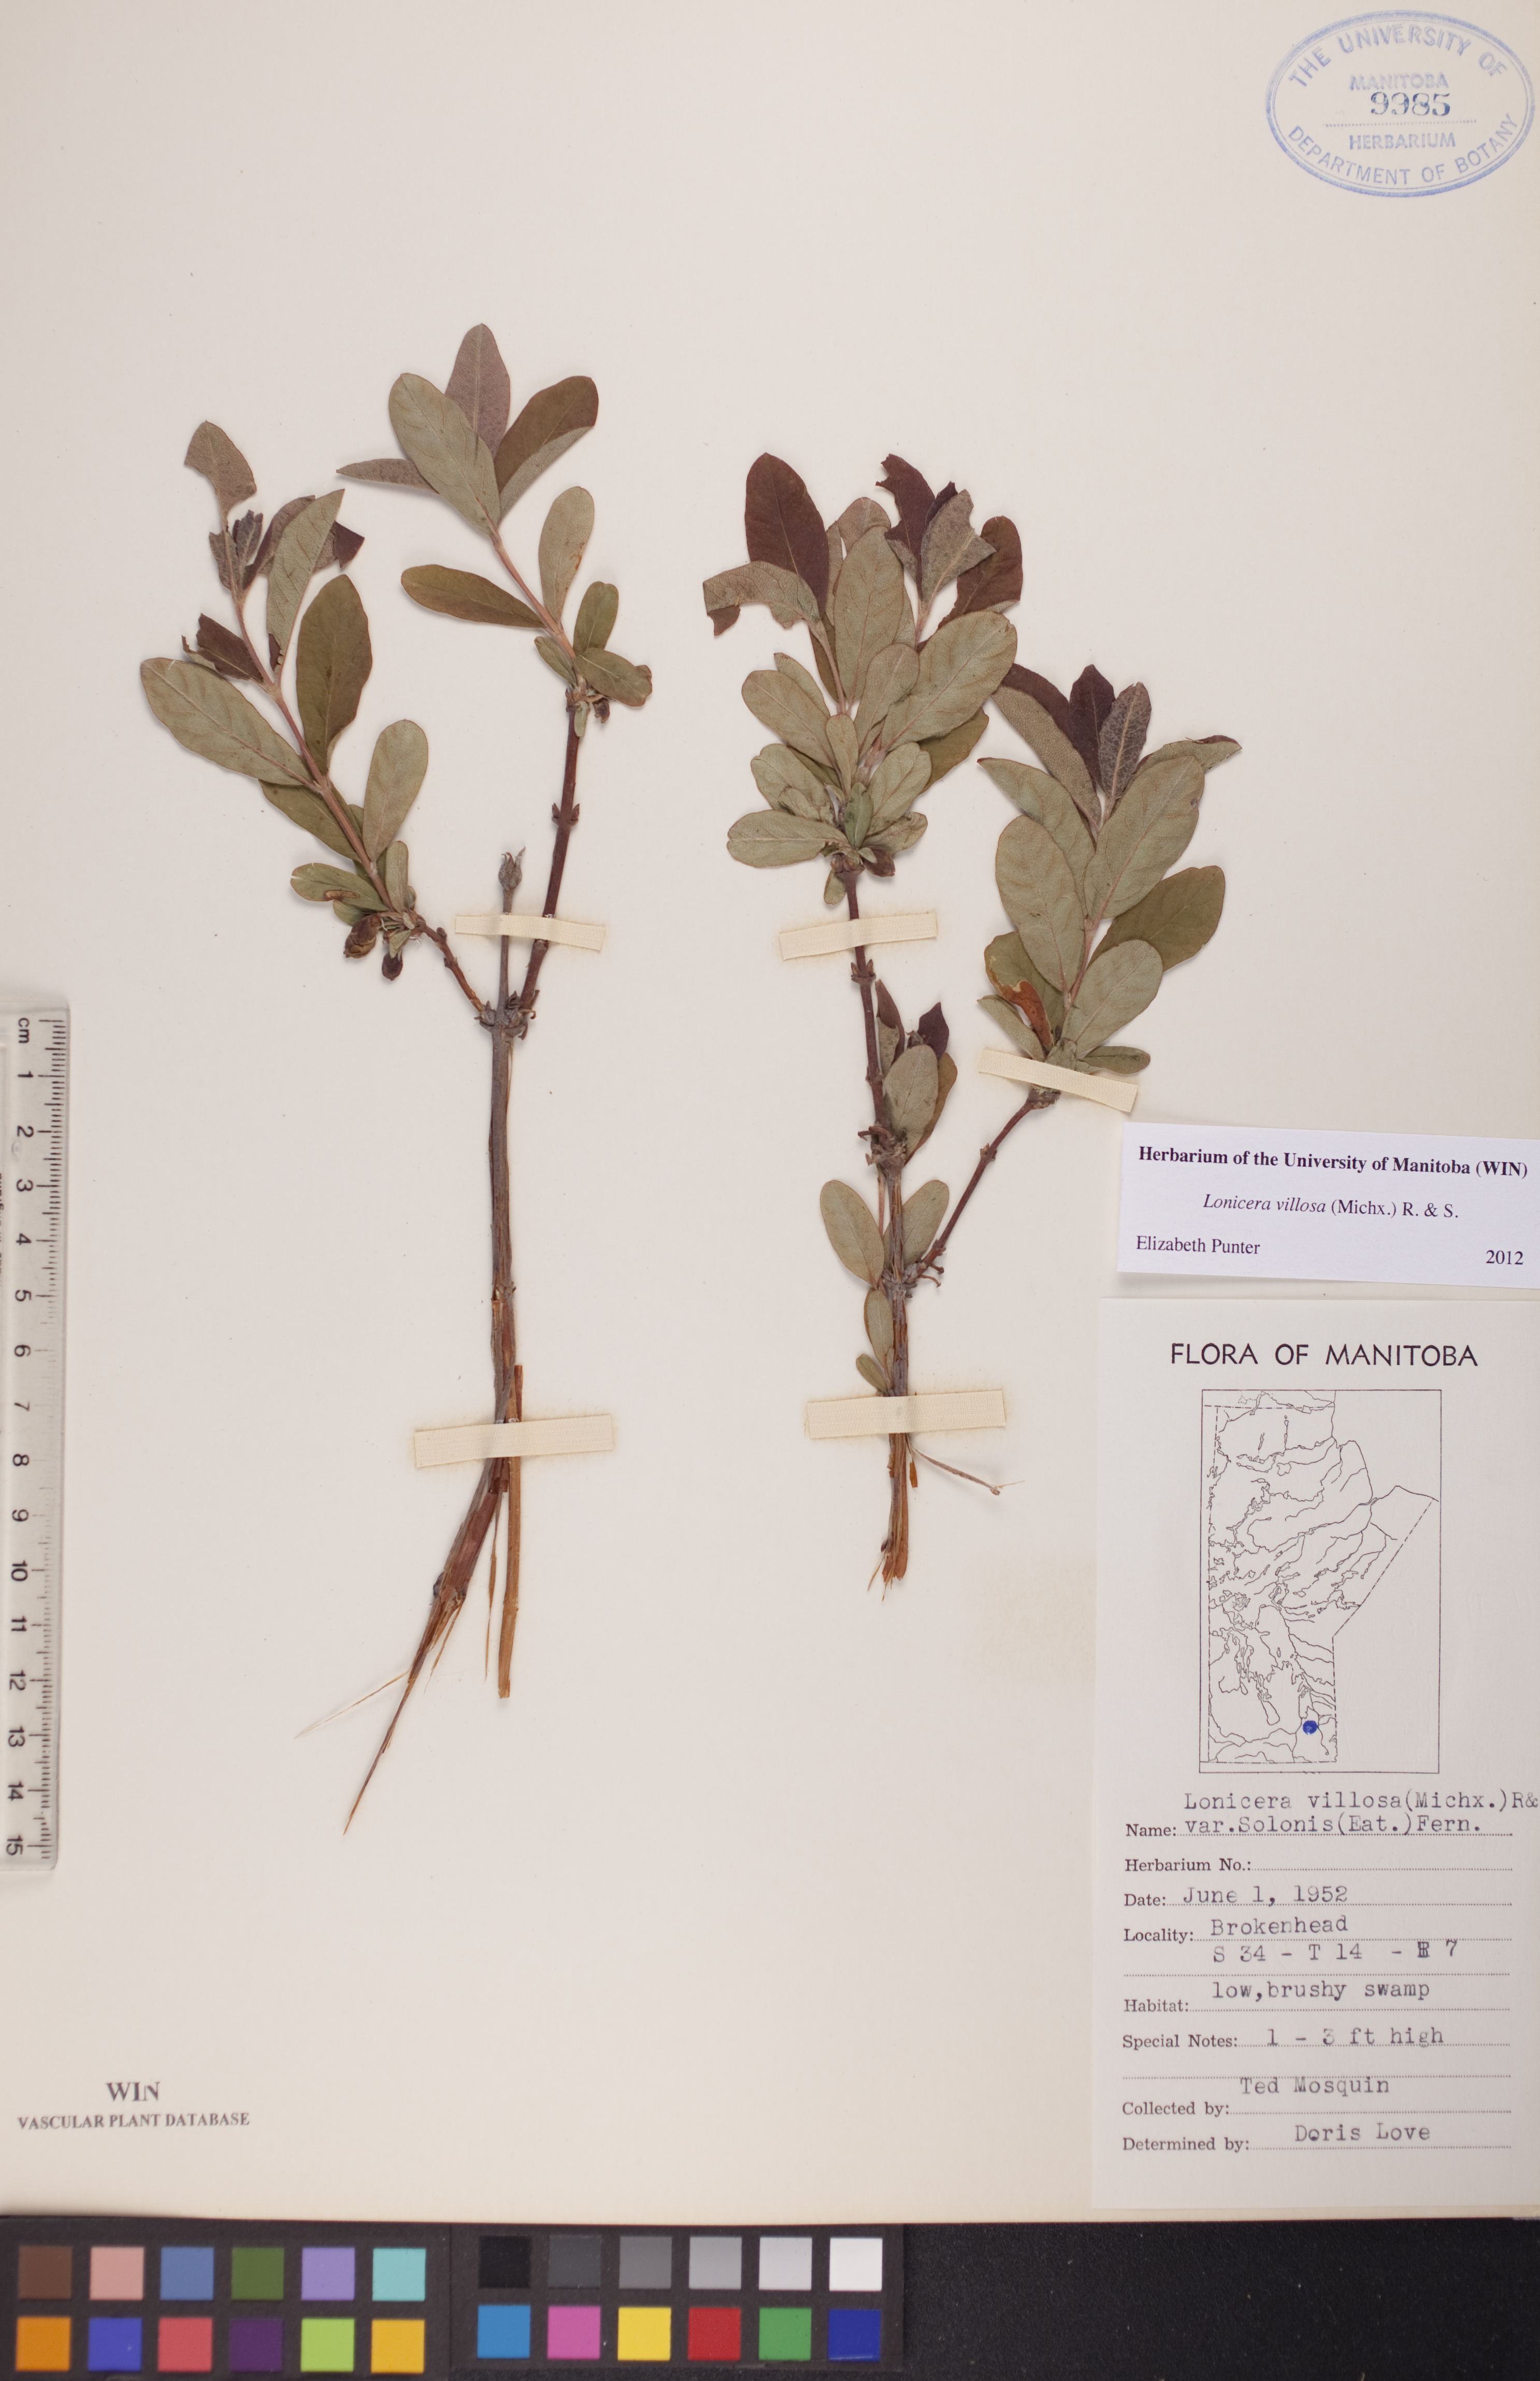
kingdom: Plantae
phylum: Tracheophyta
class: Magnoliopsida
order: Dipsacales
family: Caprifoliaceae
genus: Lonicera
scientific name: Lonicera villosa
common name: Mountain fly-honeysuckle
